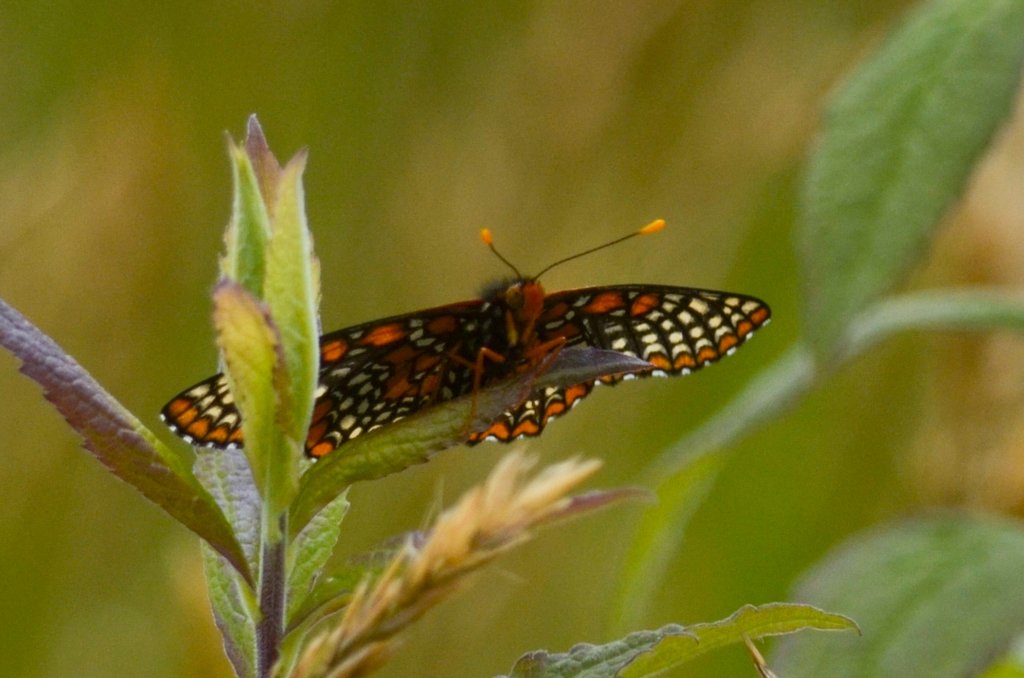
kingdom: Animalia
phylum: Arthropoda
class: Insecta
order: Lepidoptera
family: Nymphalidae
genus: Euphydryas
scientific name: Euphydryas phaeton
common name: Baltimore Checkerspot
